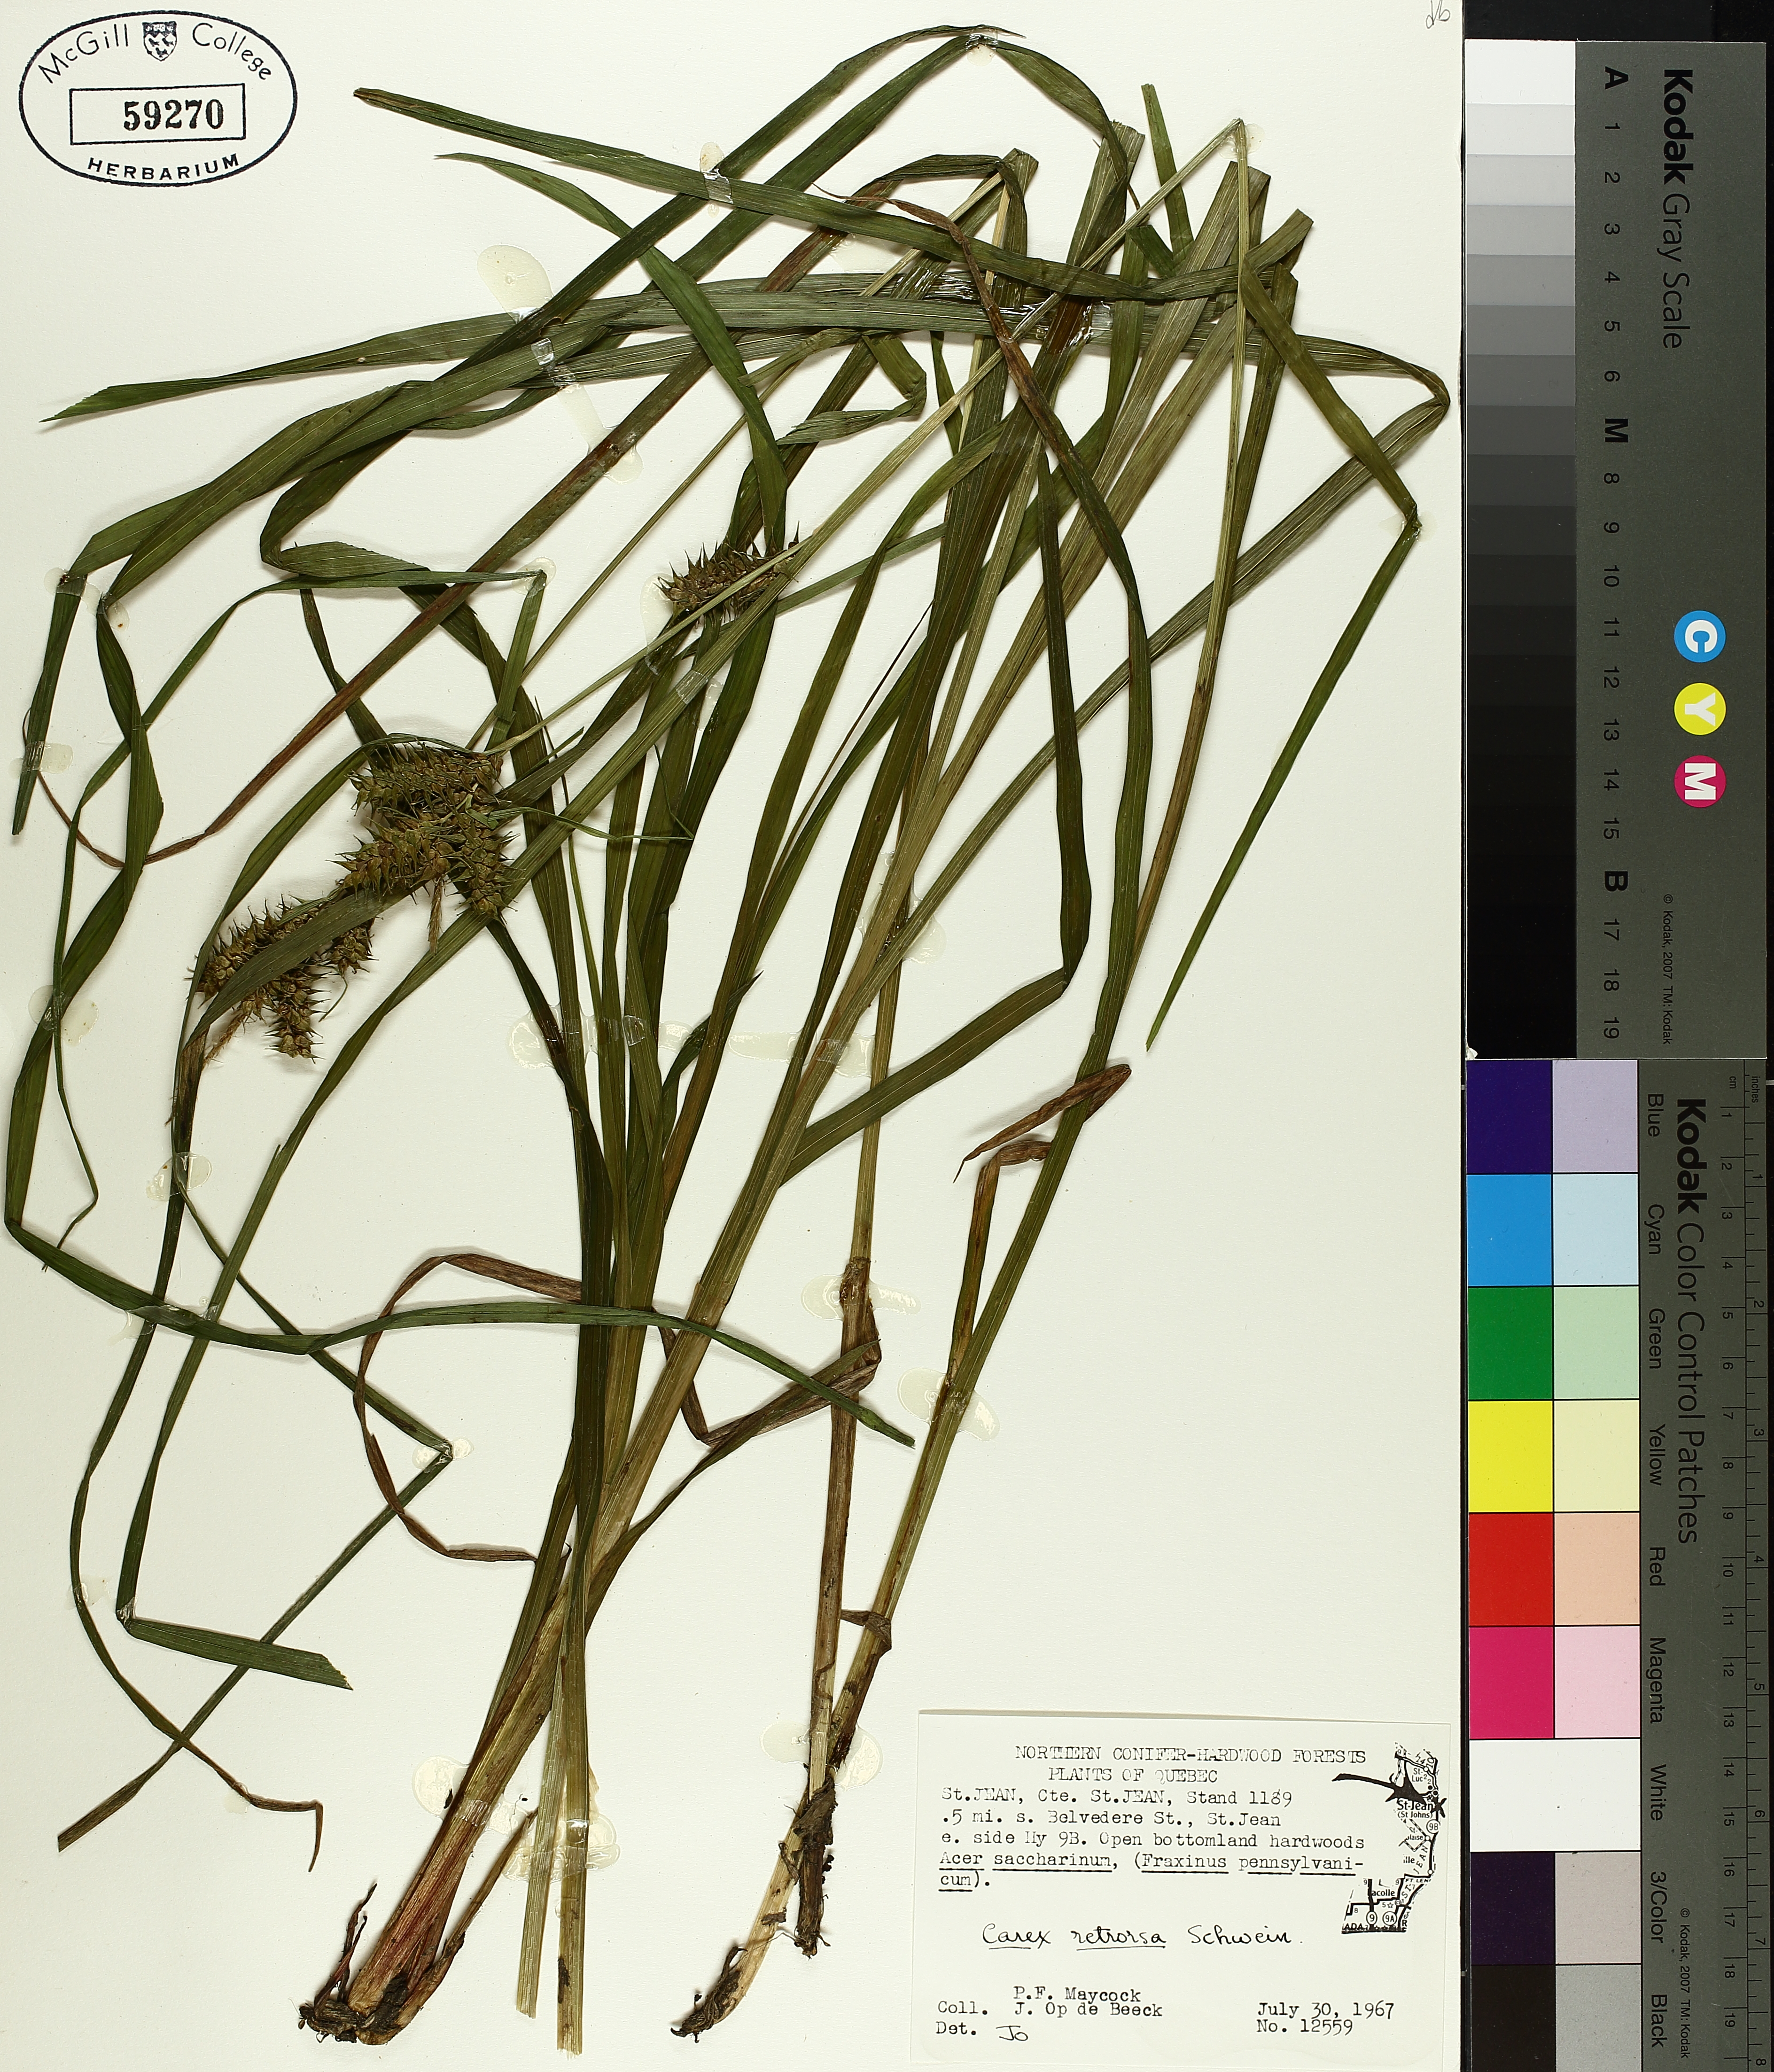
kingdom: Plantae
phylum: Tracheophyta
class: Liliopsida
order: Poales
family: Cyperaceae
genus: Carex
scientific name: Carex retrorsa
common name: Knot-sheath sedge
